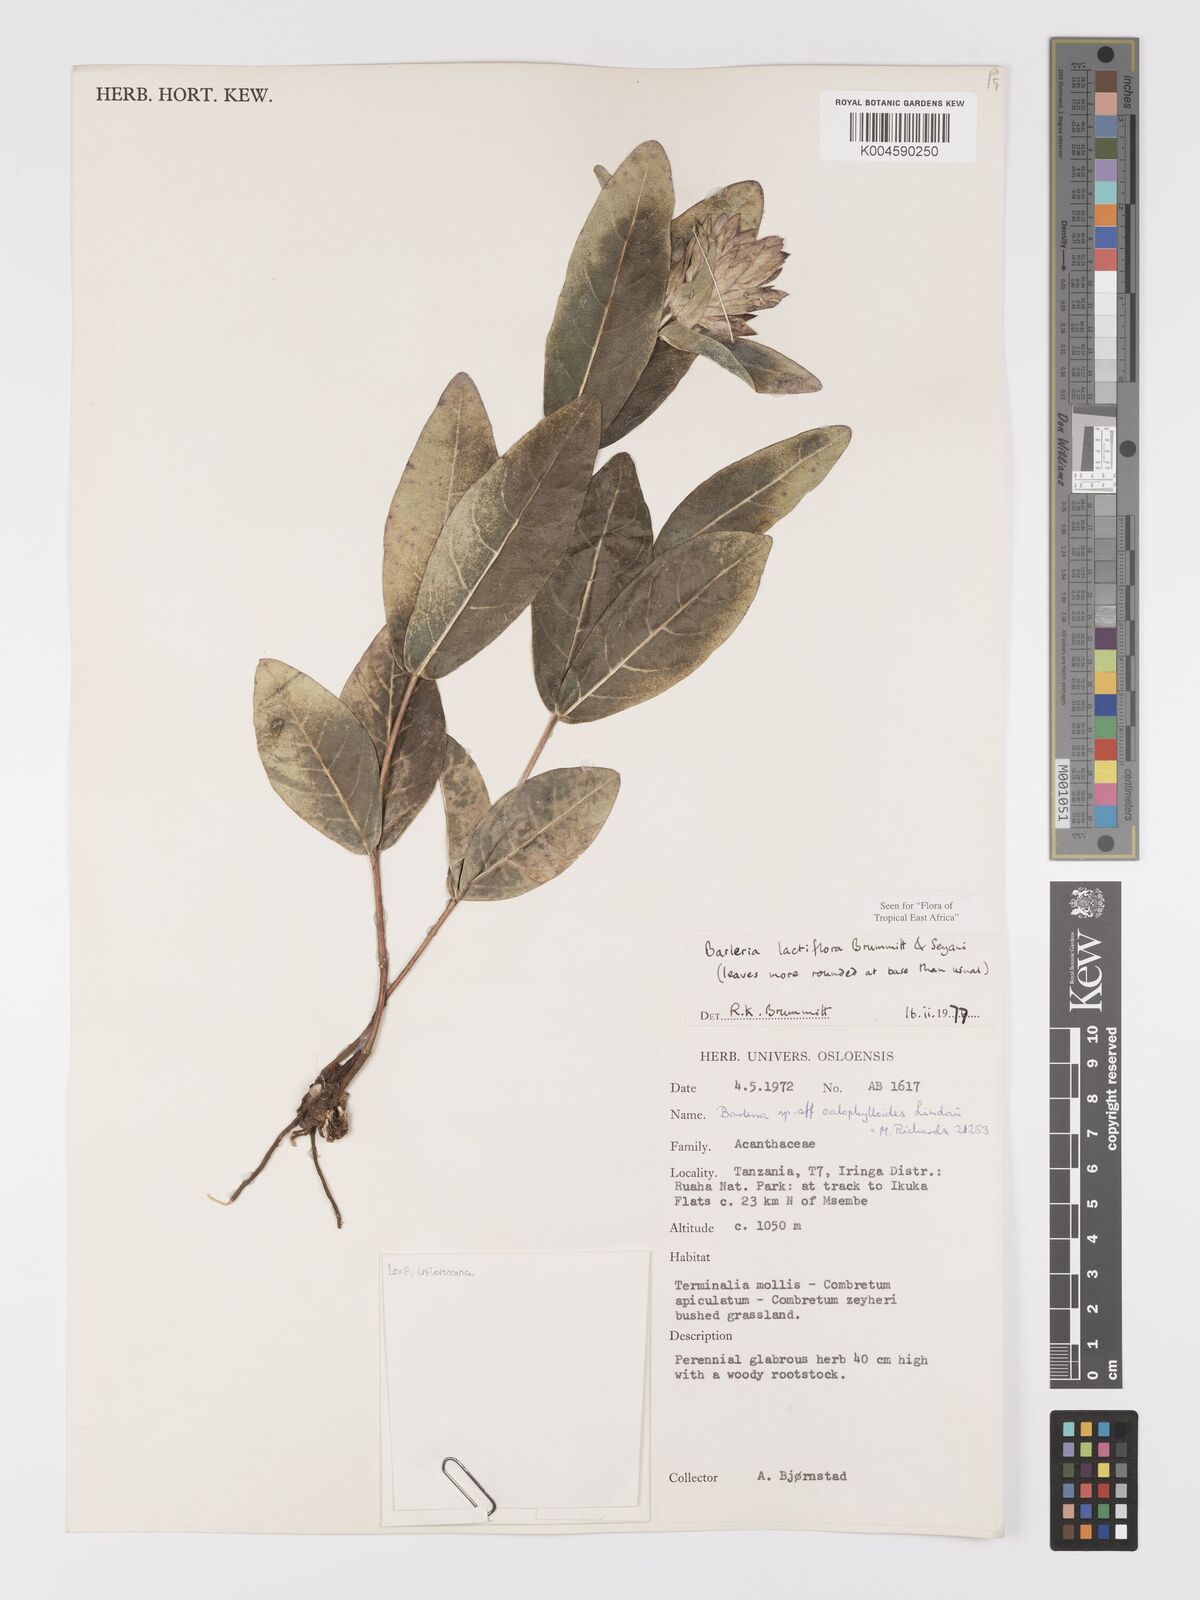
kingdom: Plantae
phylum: Tracheophyta
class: Magnoliopsida
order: Lamiales
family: Acanthaceae
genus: Barleria
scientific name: Barleria lactiflora
